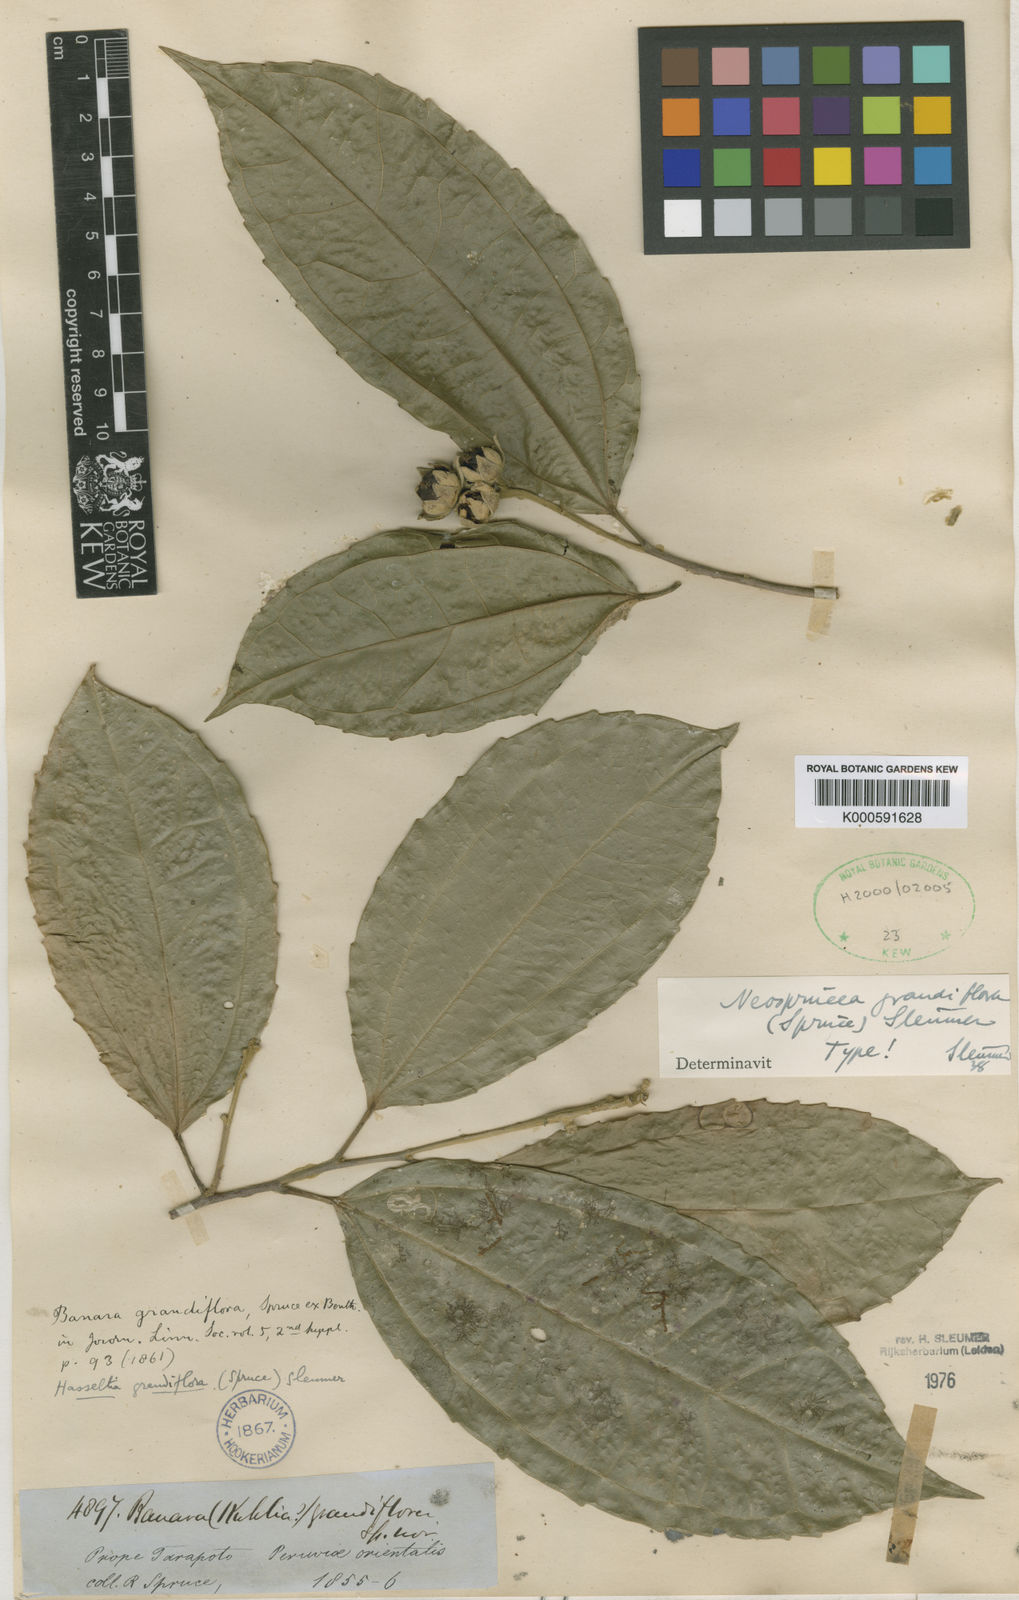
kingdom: Plantae
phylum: Tracheophyta
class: Magnoliopsida
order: Malpighiales
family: Salicaceae
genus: Neosprucea
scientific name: Neosprucea grandiflora
